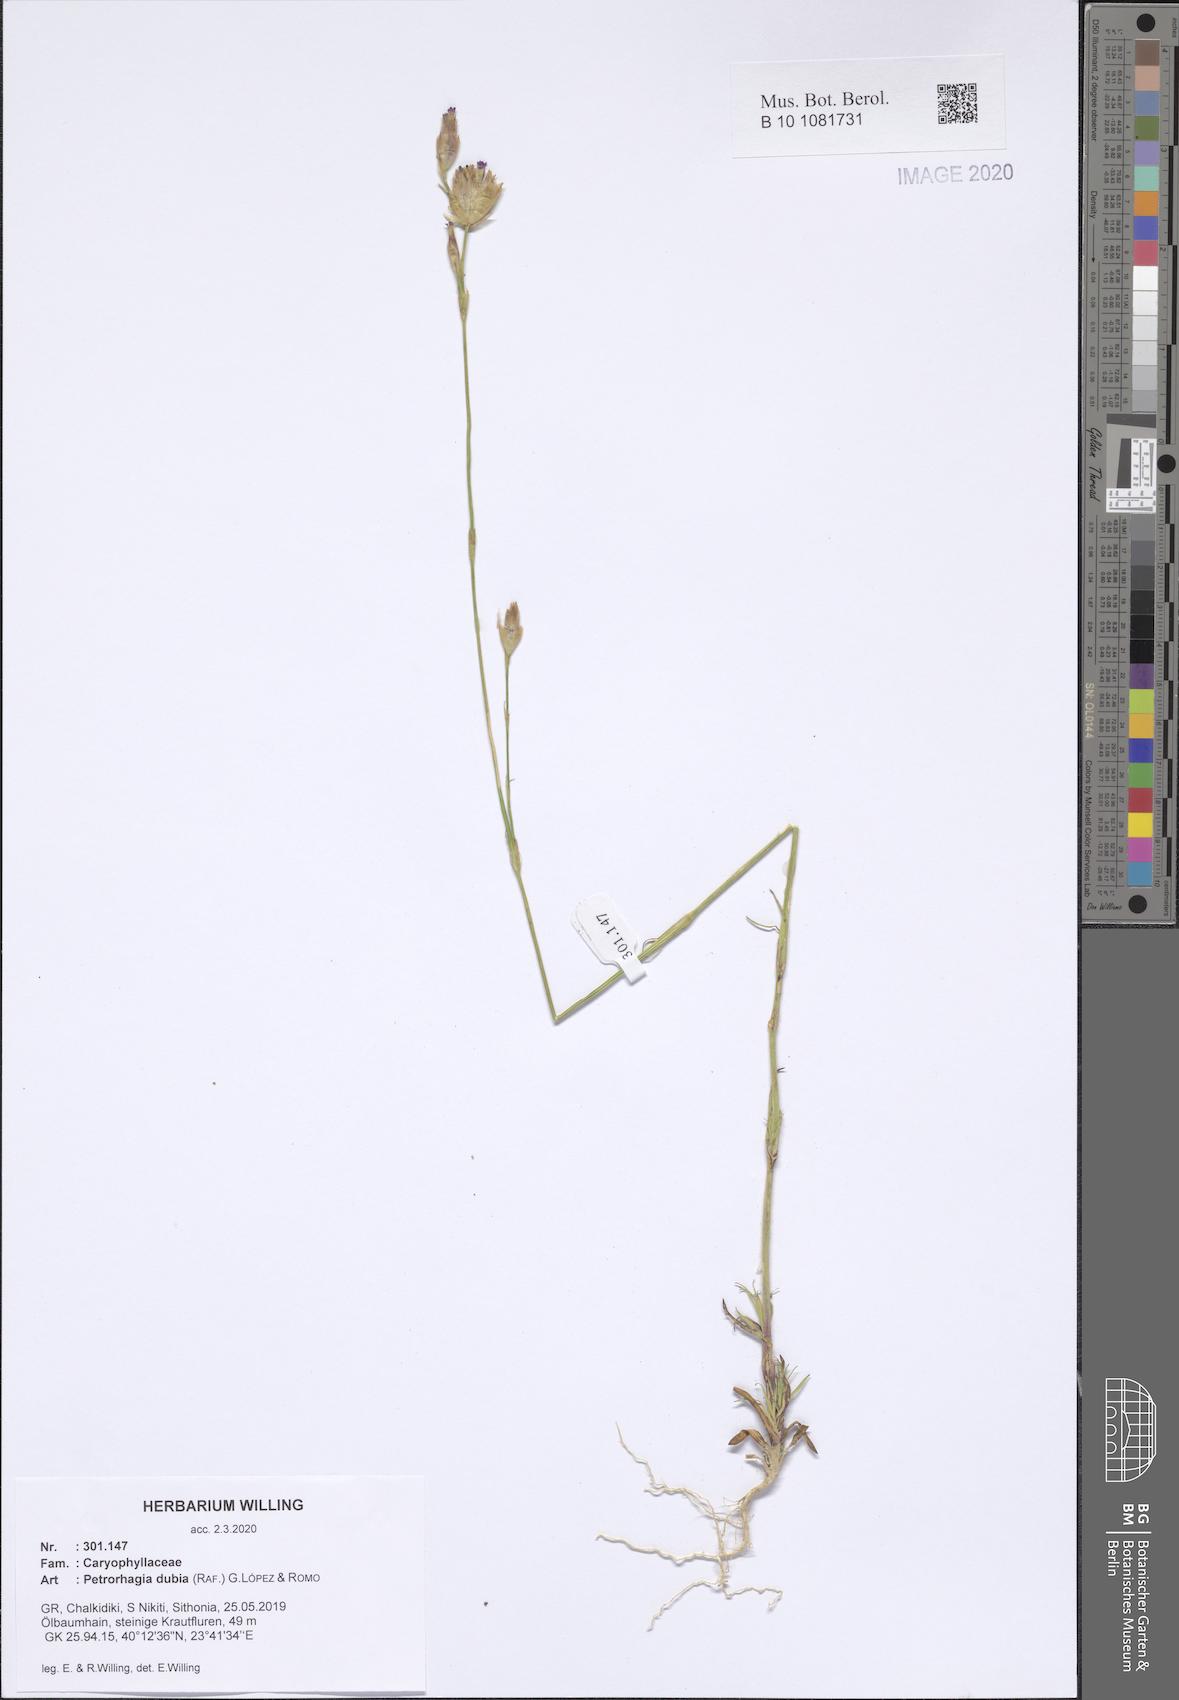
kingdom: Plantae
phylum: Tracheophyta
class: Magnoliopsida
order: Caryophyllales
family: Caryophyllaceae
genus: Petrorhagia
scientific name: Petrorhagia dubia
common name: Hairypink
